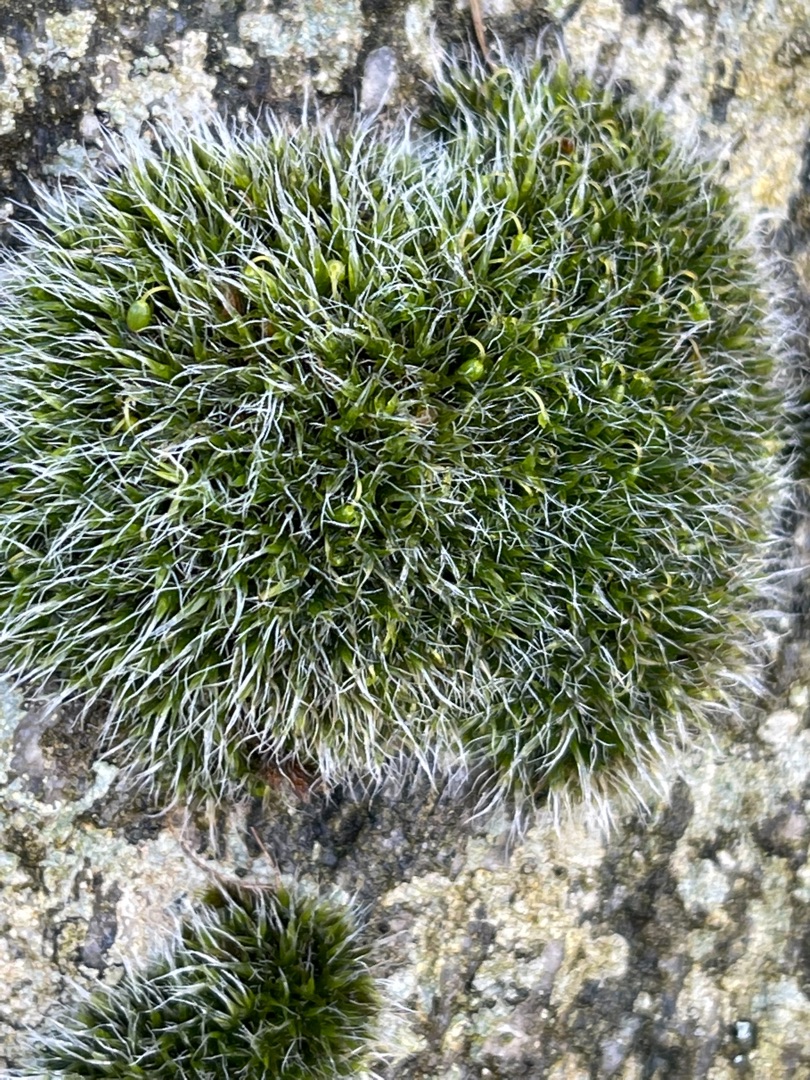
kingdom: Plantae
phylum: Bryophyta
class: Bryopsida
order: Grimmiales
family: Grimmiaceae
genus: Grimmia
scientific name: Grimmia pulvinata
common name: Pude-gråmos
